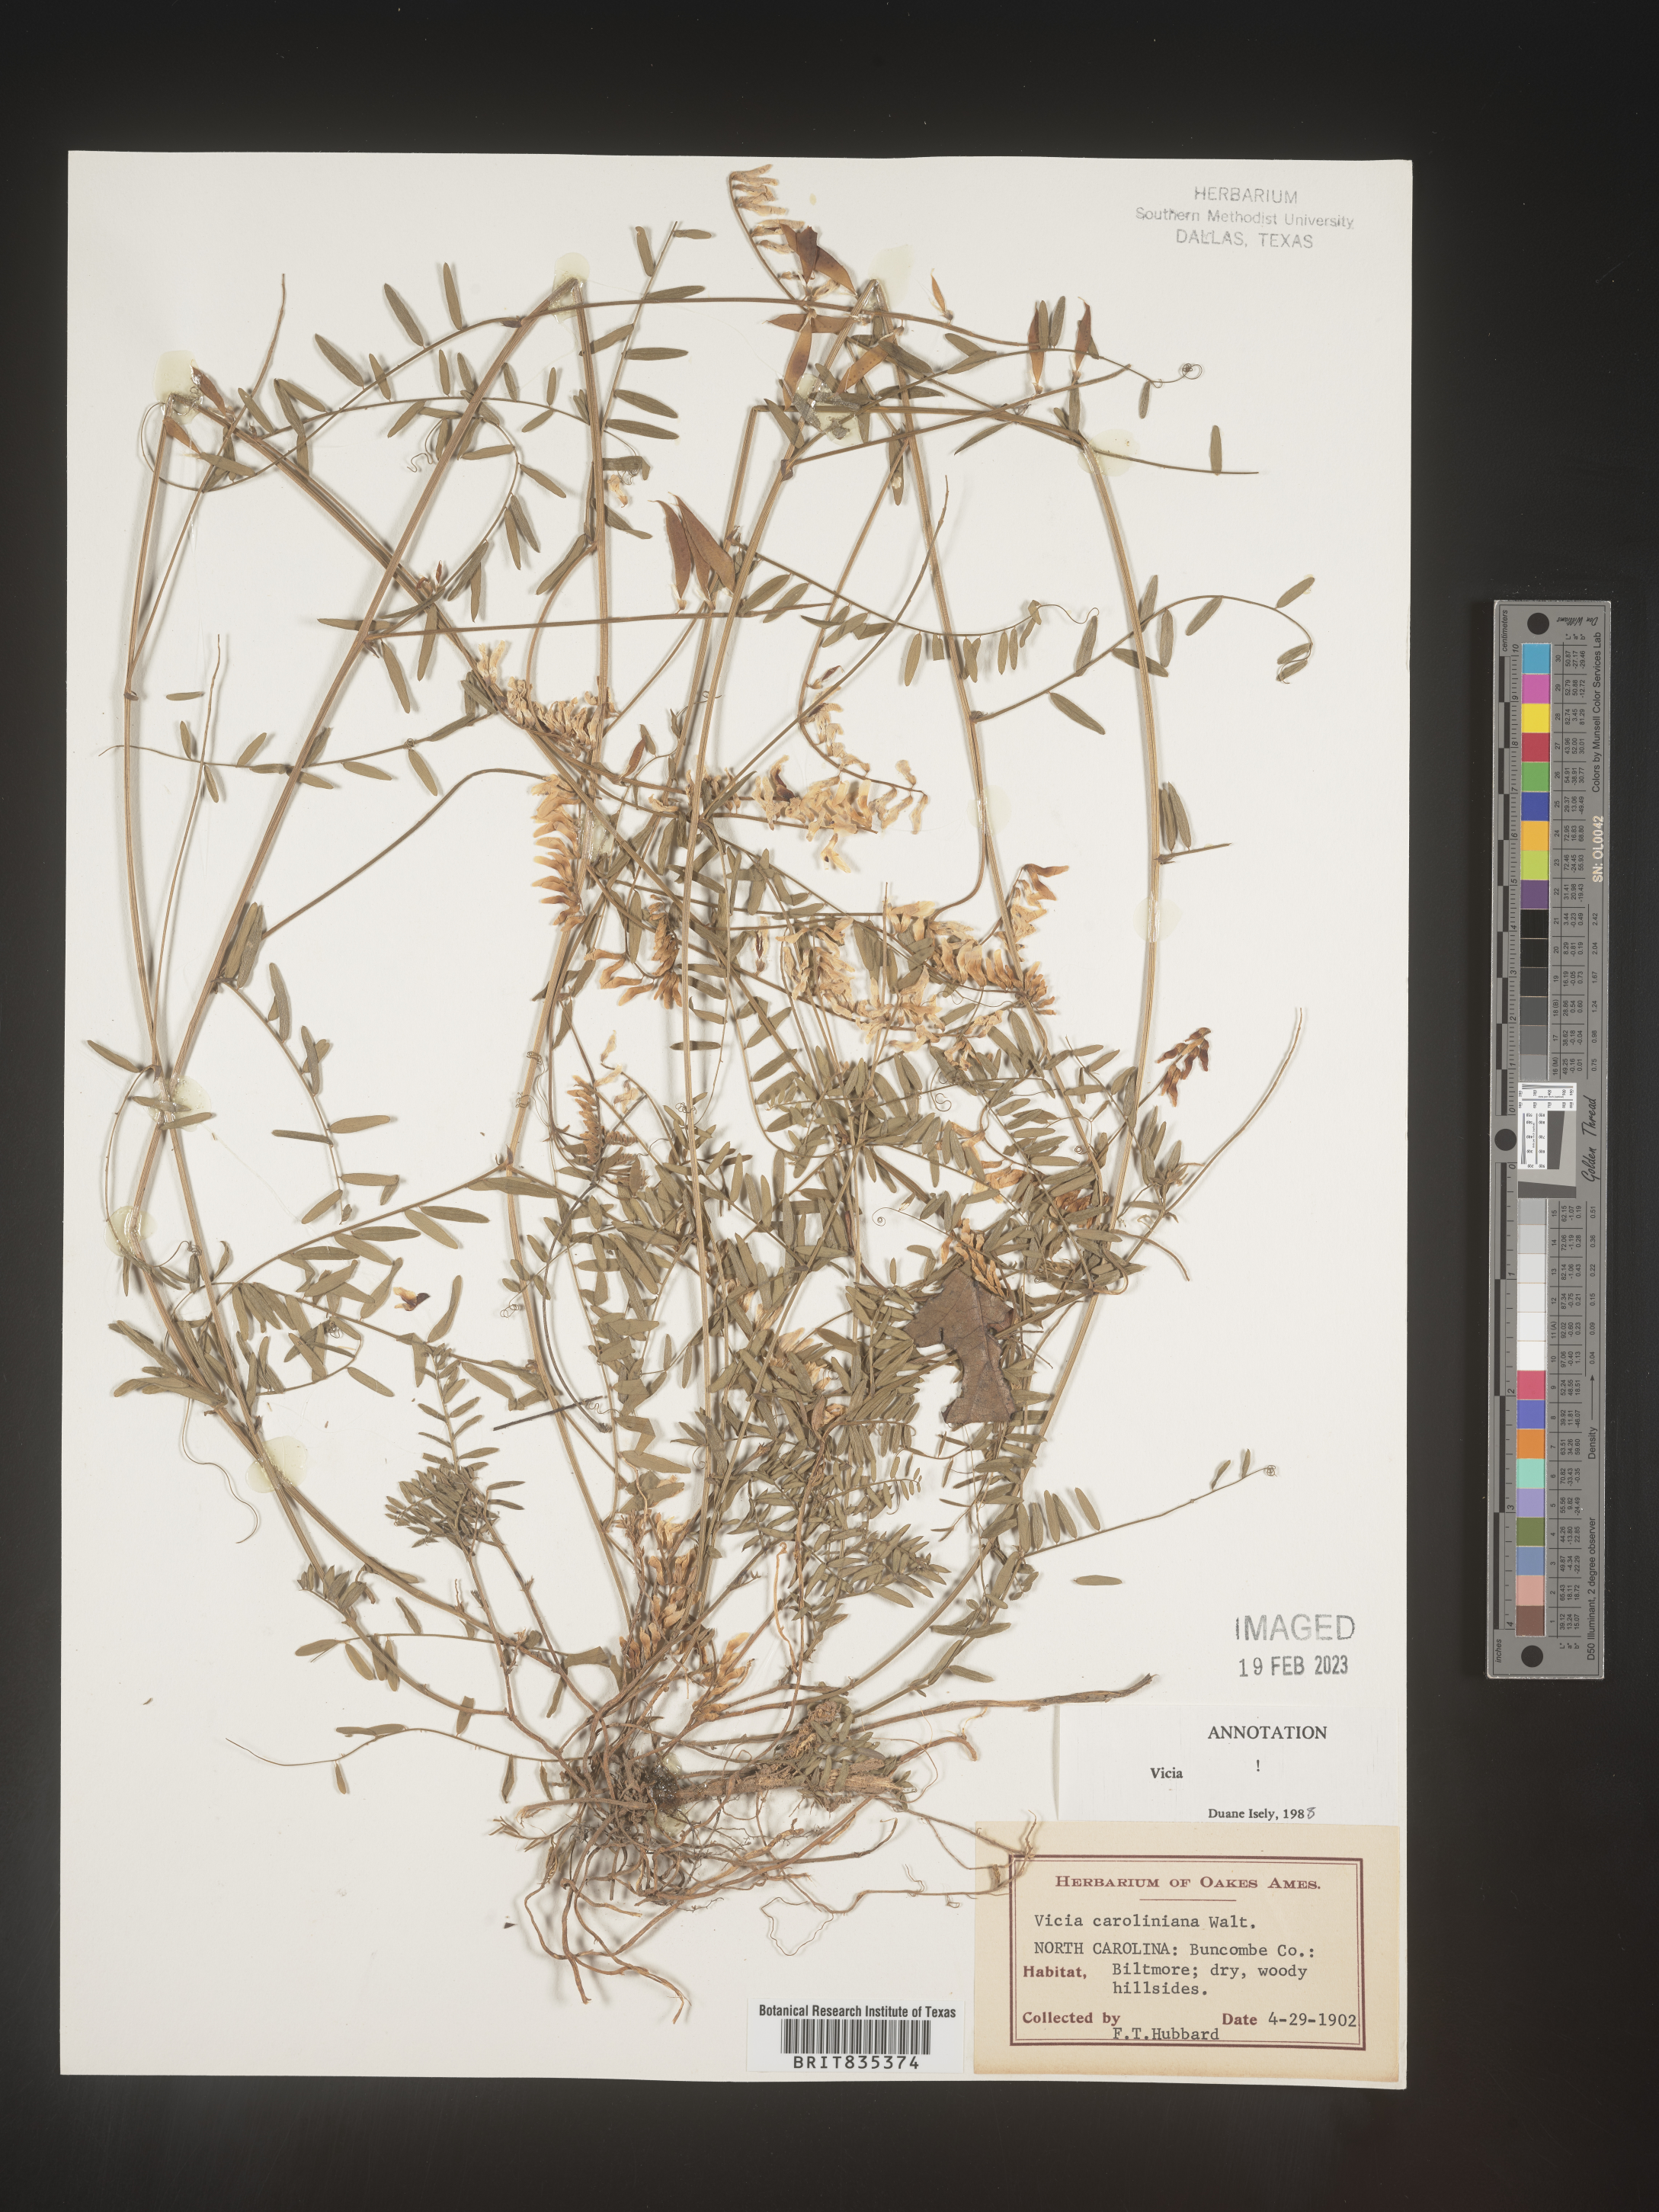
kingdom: Plantae
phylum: Tracheophyta
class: Magnoliopsida
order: Fabales
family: Fabaceae
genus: Vicia
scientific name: Vicia caroliniana
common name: Carolina vetch
